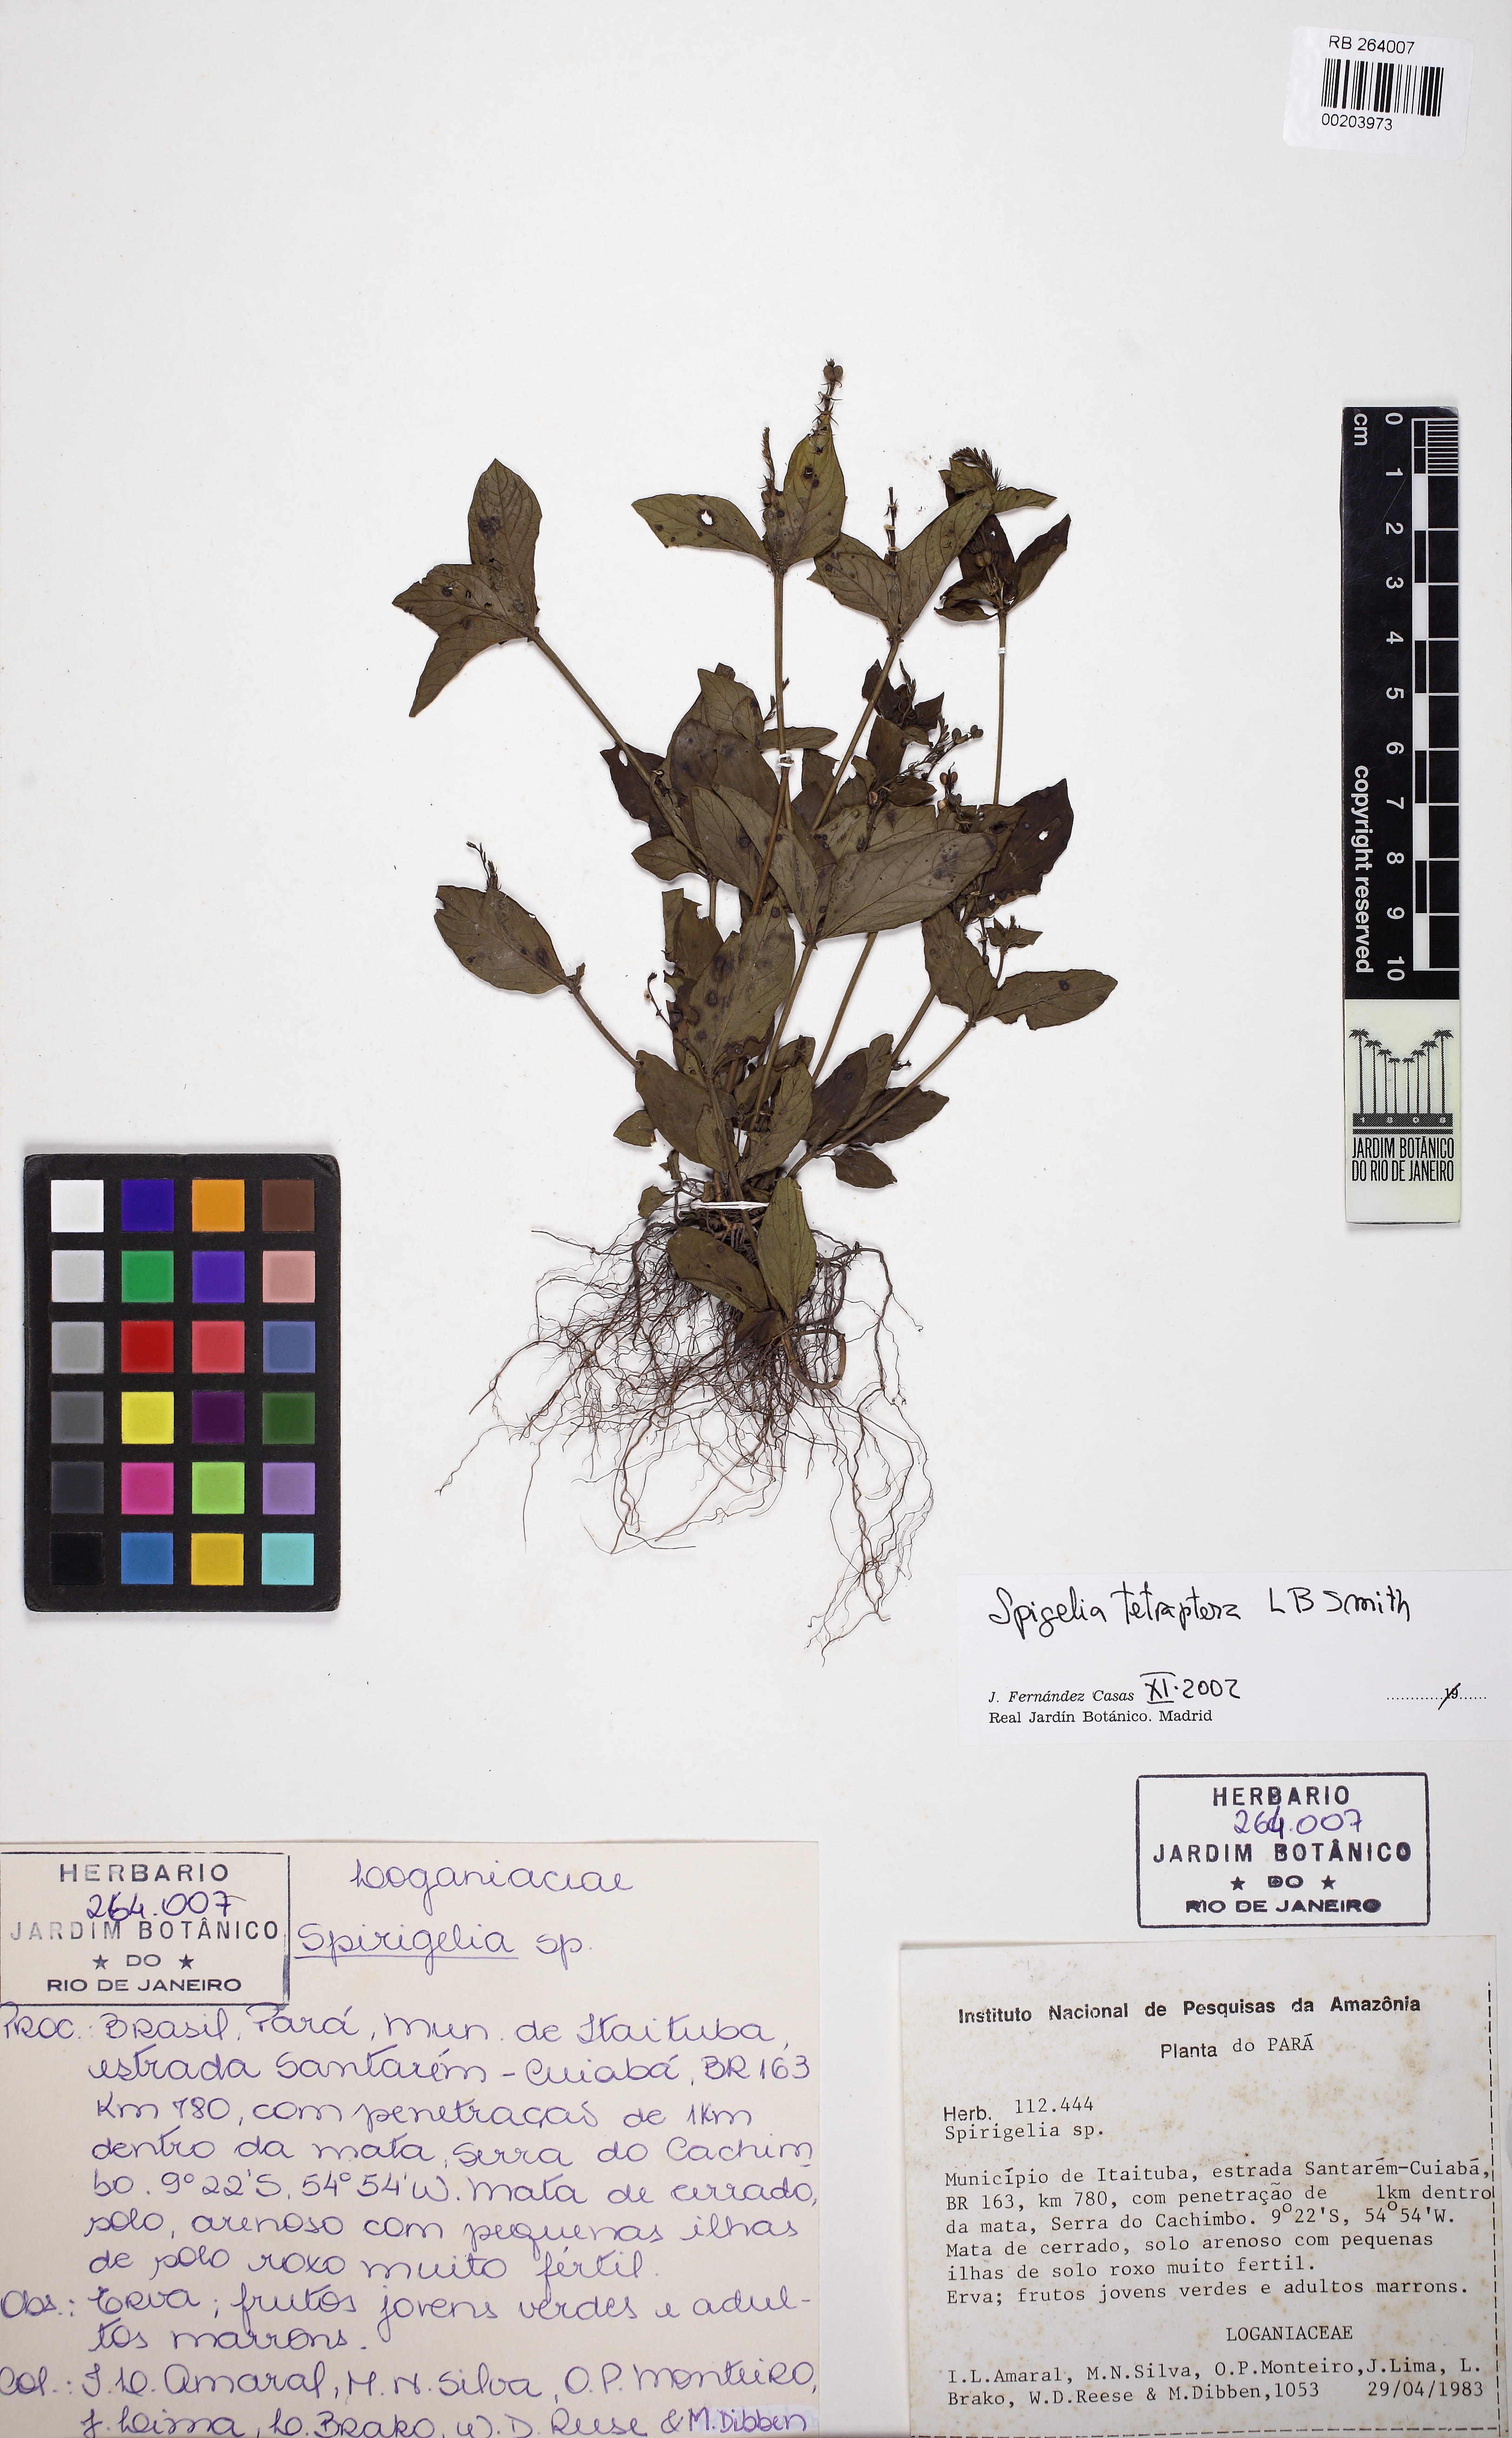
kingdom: Plantae
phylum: Tracheophyta
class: Magnoliopsida
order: Gentianales
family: Loganiaceae
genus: Spigelia
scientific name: Spigelia tetraptera
